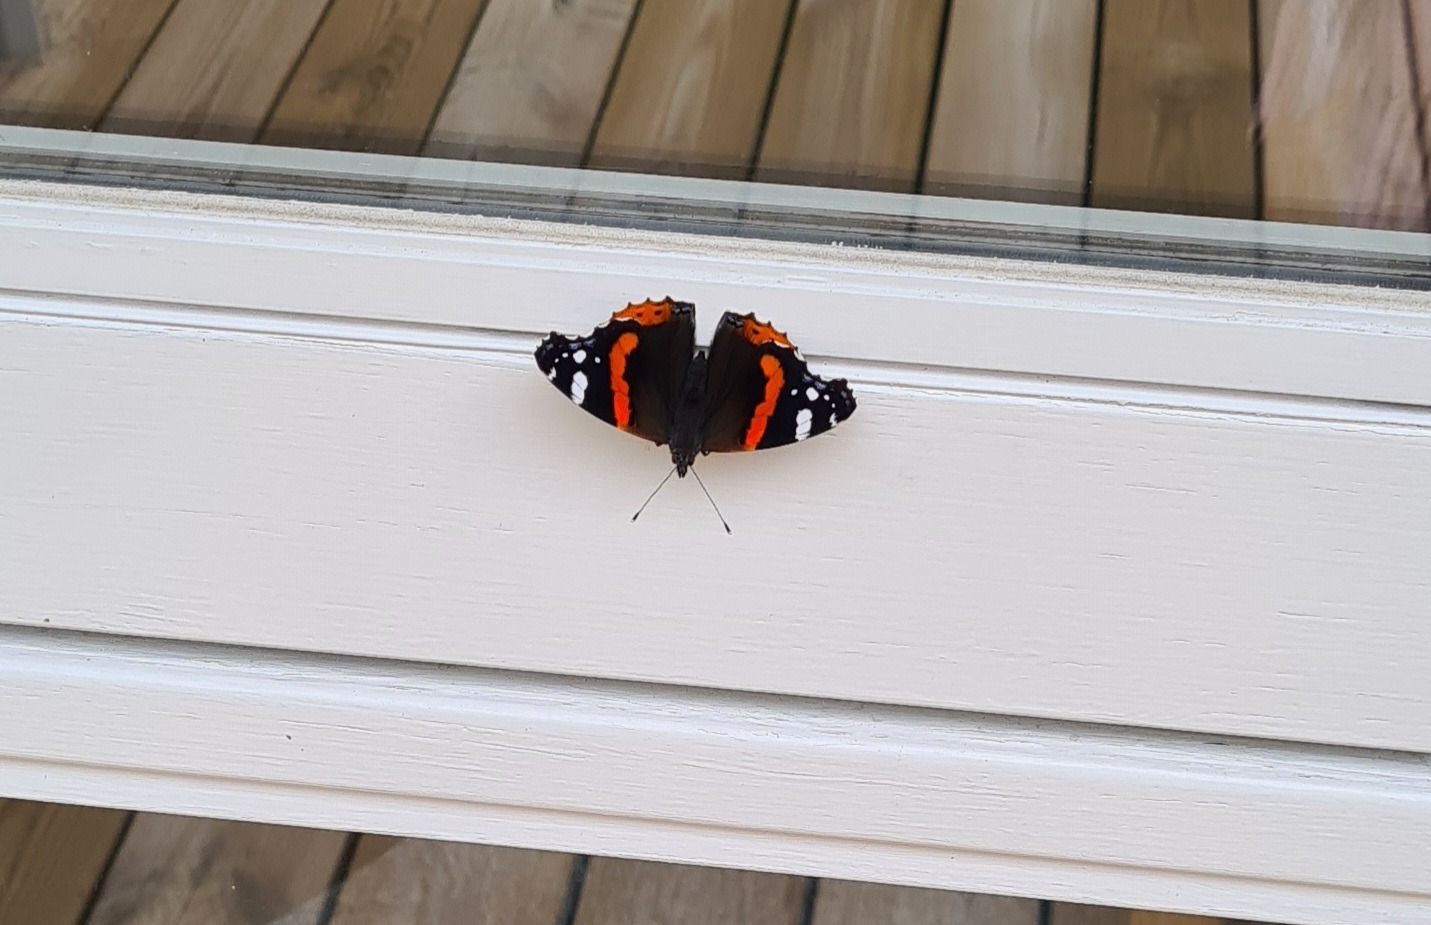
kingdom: Animalia
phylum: Arthropoda
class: Insecta
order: Lepidoptera
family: Nymphalidae
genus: Vanessa
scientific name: Vanessa atalanta
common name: Admiral
